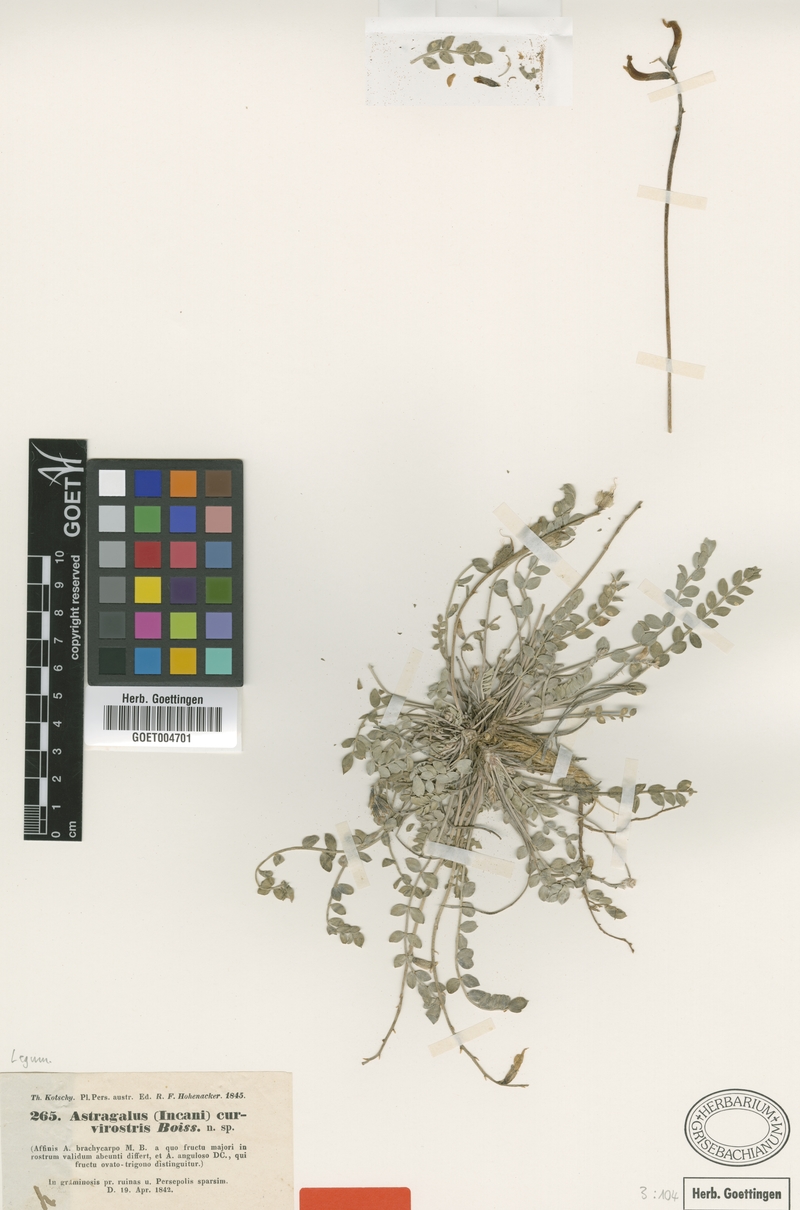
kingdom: Plantae
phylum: Tracheophyta
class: Magnoliopsida
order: Fabales
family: Fabaceae
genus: Astragalus
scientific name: Astragalus curvirostris
